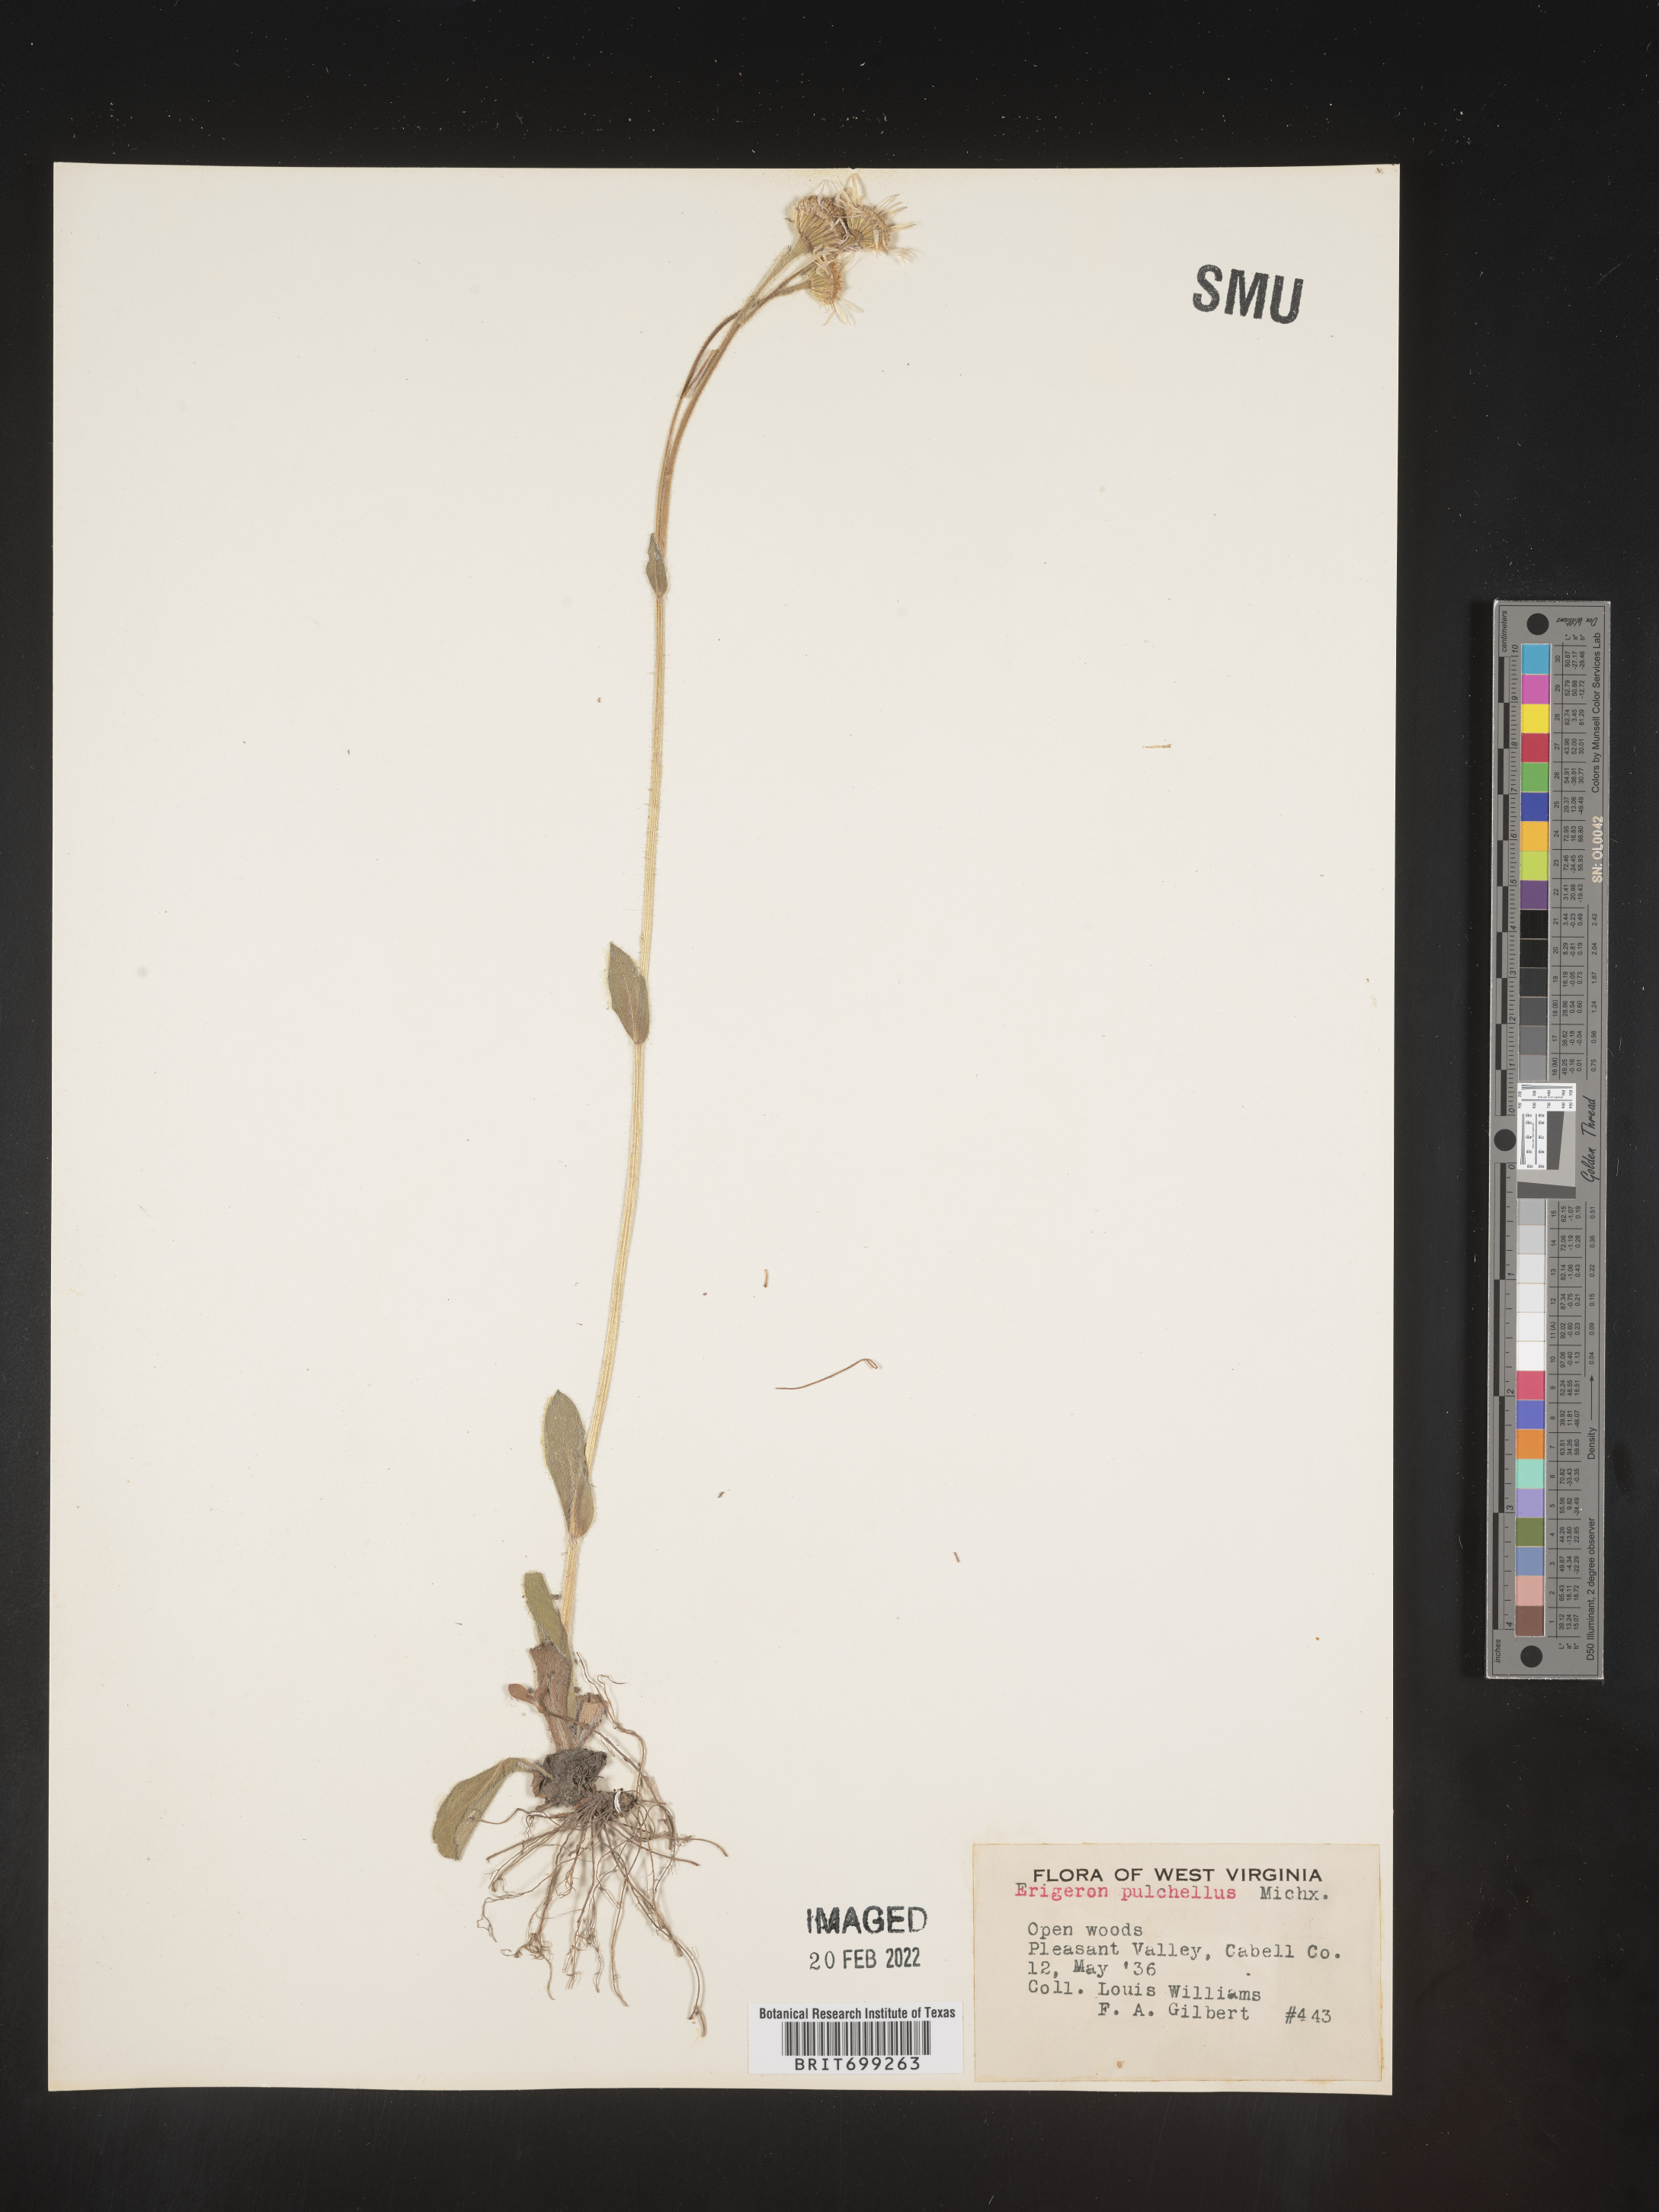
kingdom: Plantae
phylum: Tracheophyta
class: Magnoliopsida
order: Asterales
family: Asteraceae
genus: Erigeron
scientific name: Erigeron pulchellus
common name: Hairy fleabane
